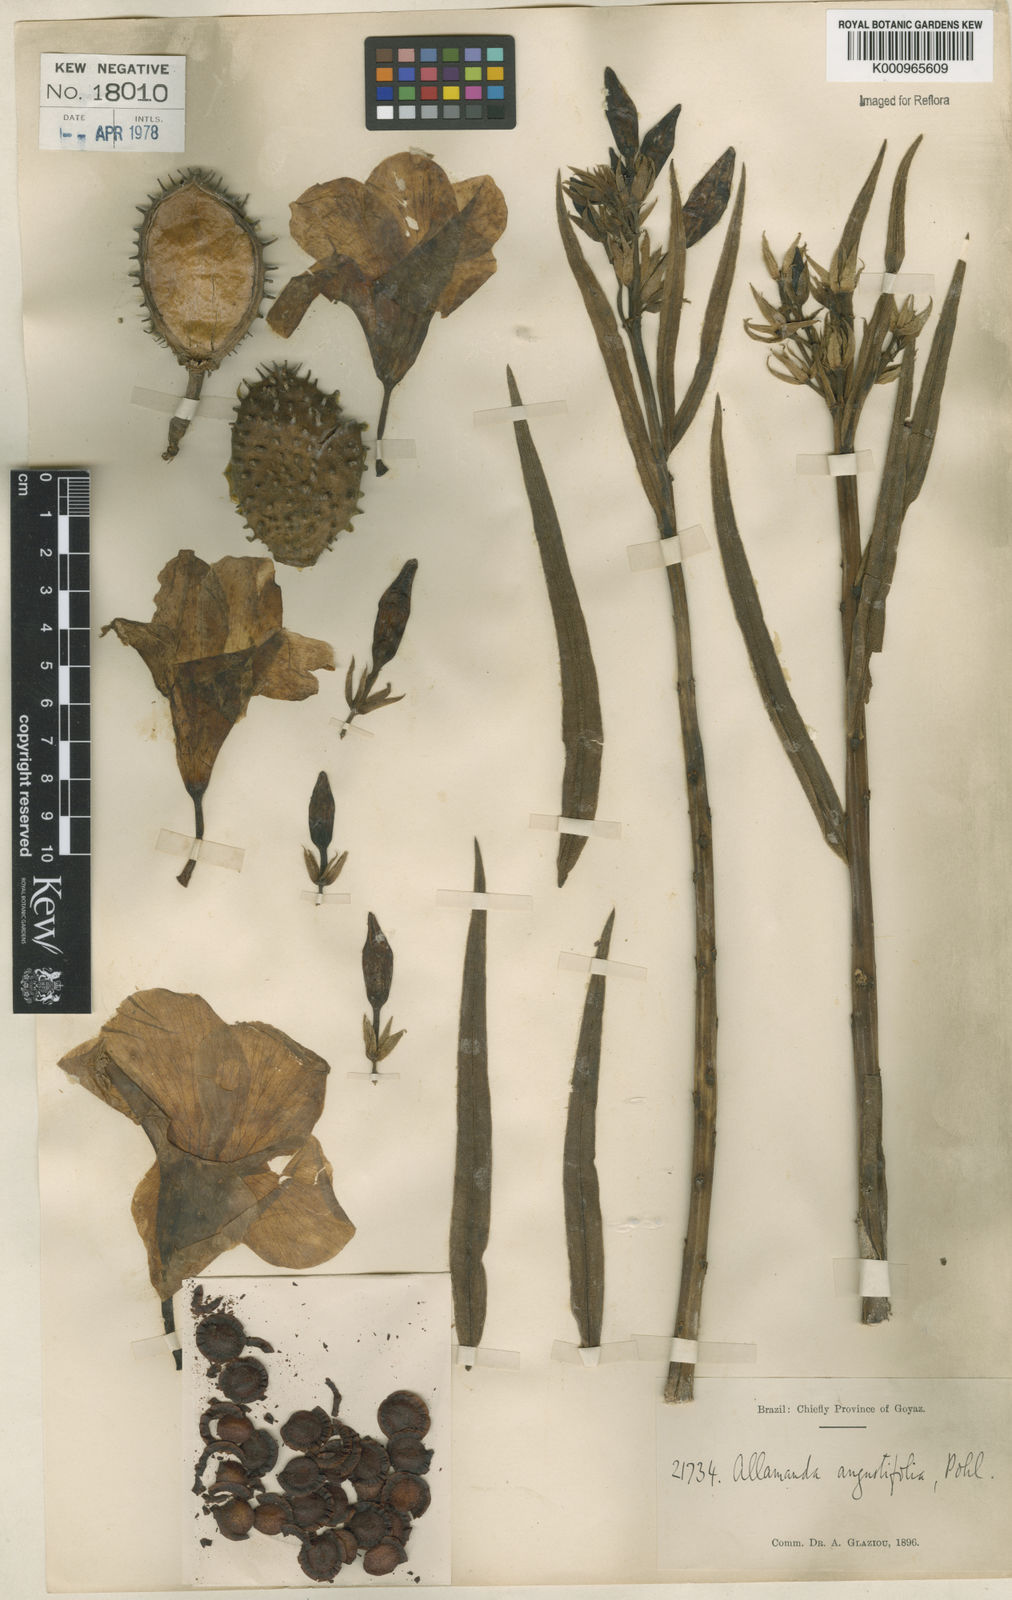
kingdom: Plantae
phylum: Tracheophyta
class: Magnoliopsida
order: Gentianales
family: Apocynaceae
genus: Allamanda
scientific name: Allamanda angustifolia
